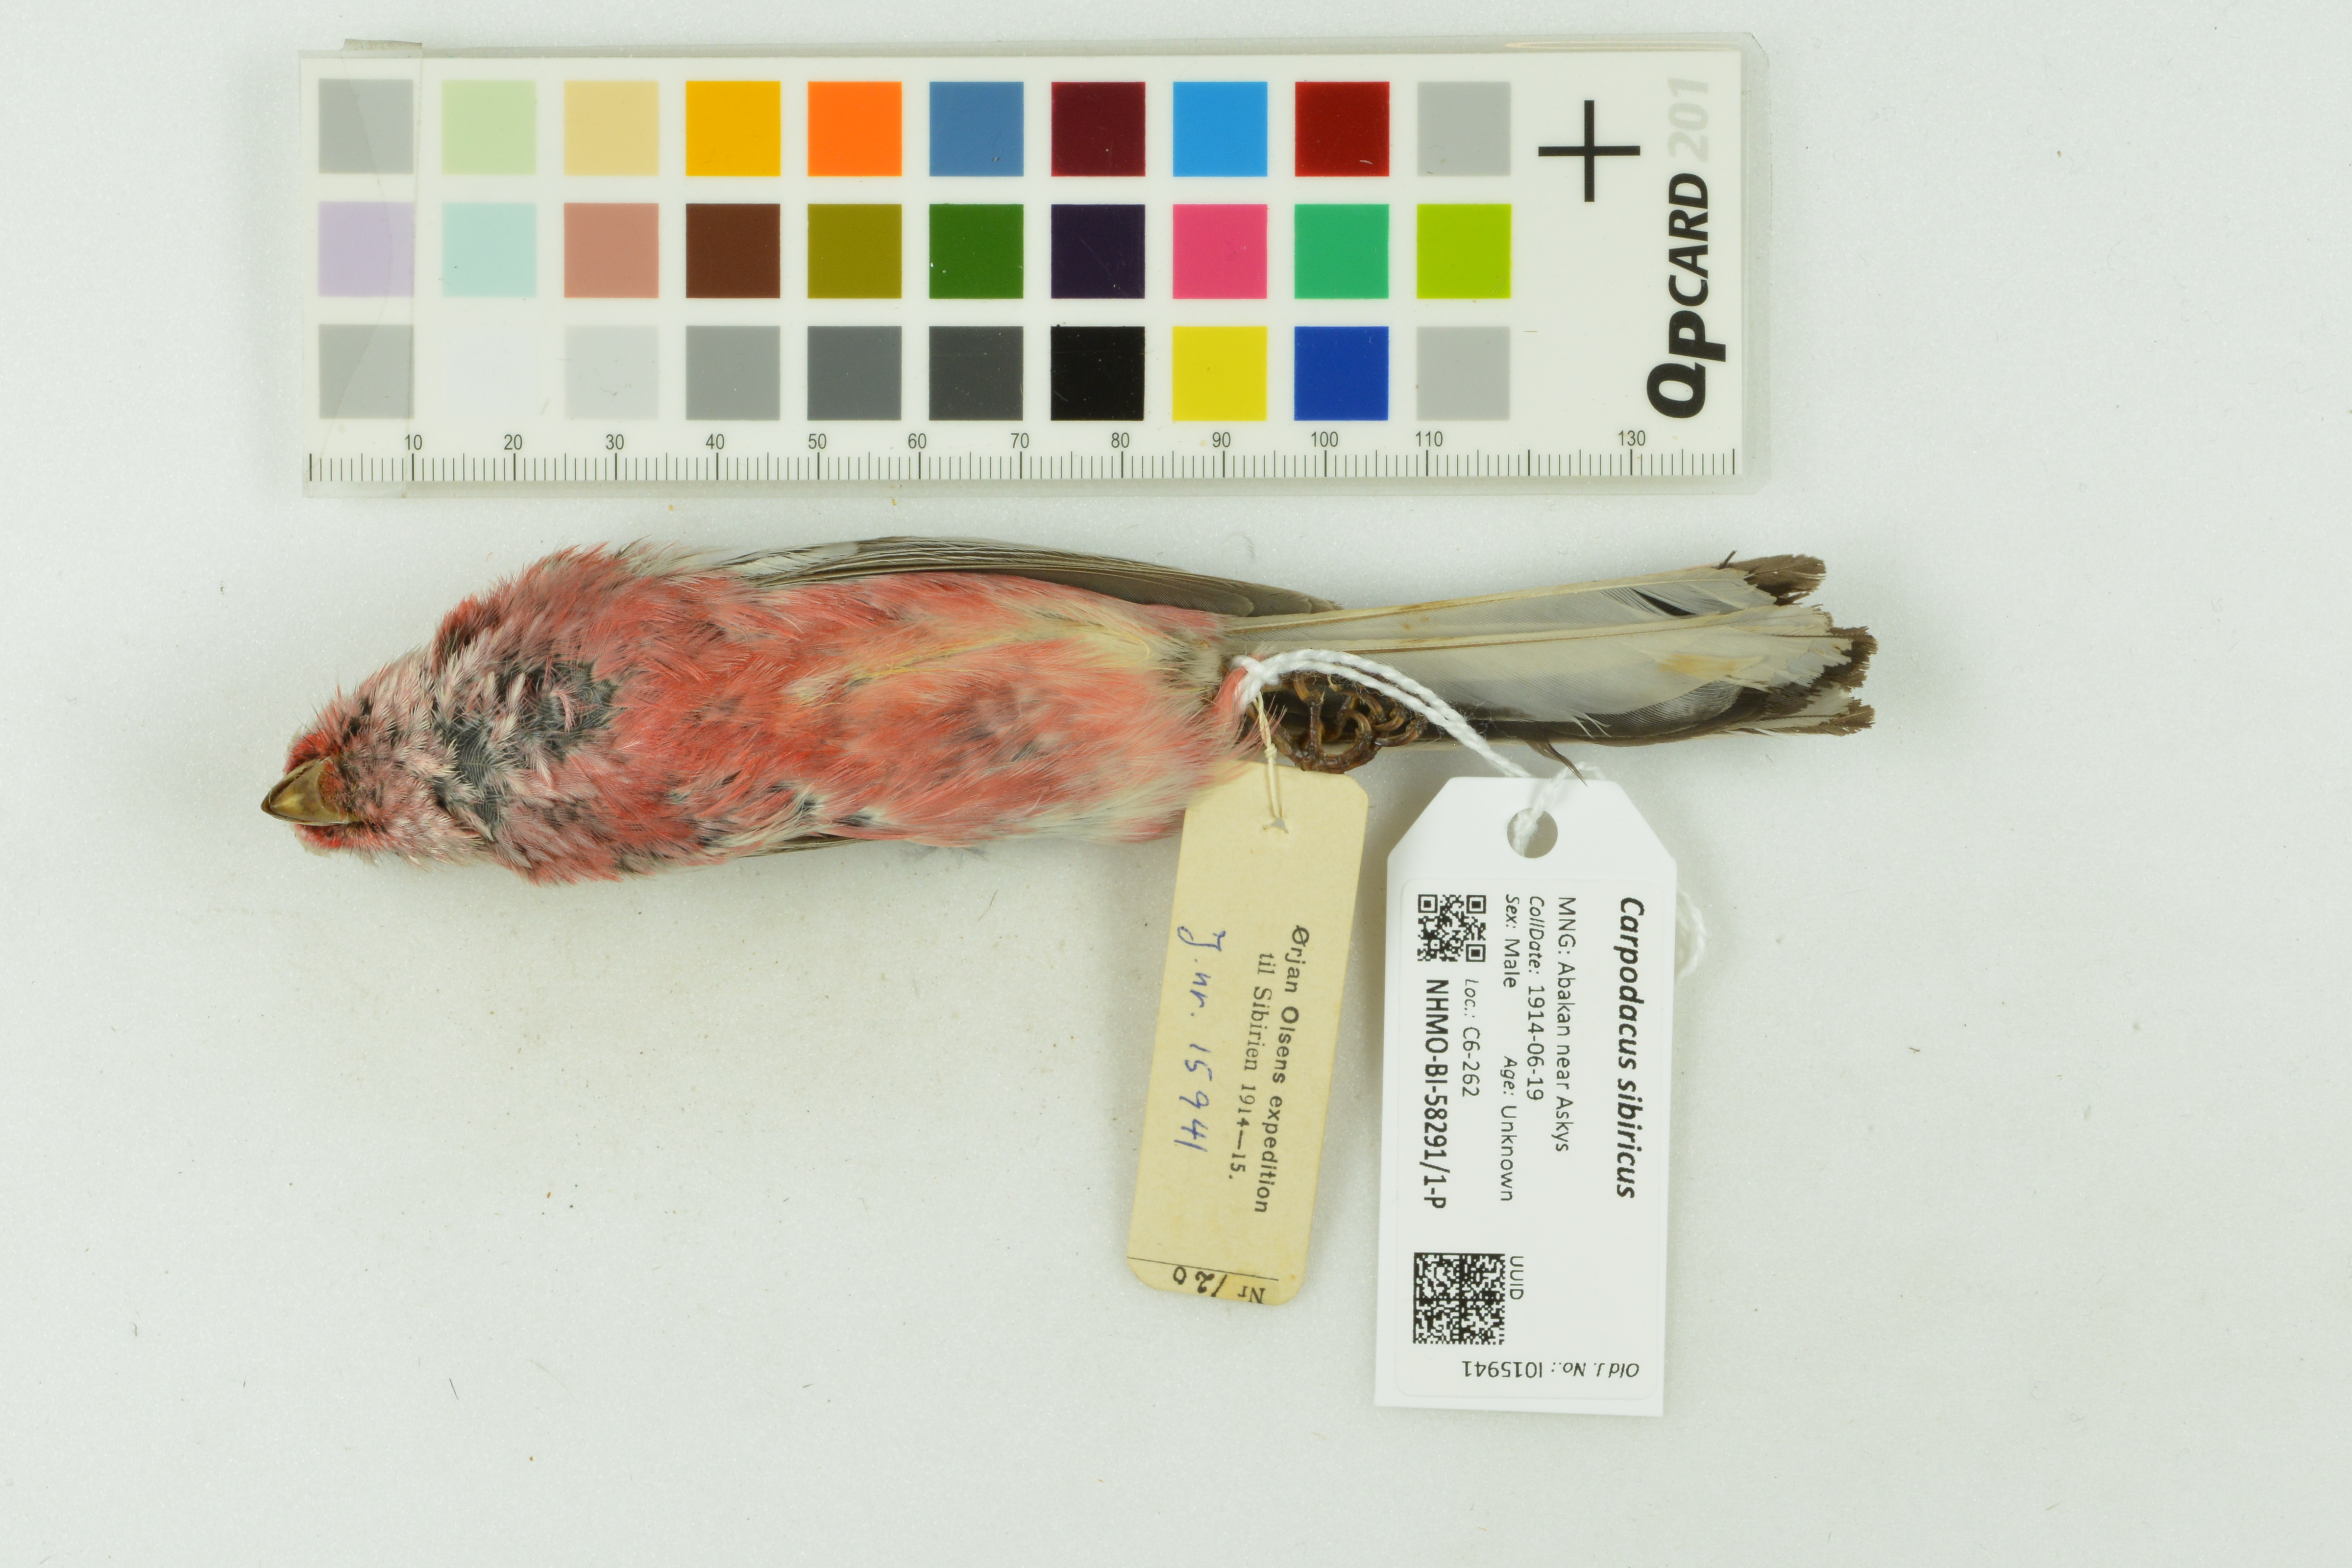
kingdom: Animalia
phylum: Chordata
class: Aves
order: Passeriformes
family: Fringillidae
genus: Carpodacus
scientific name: Carpodacus sibiricus
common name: Long-tailed rosefinch
